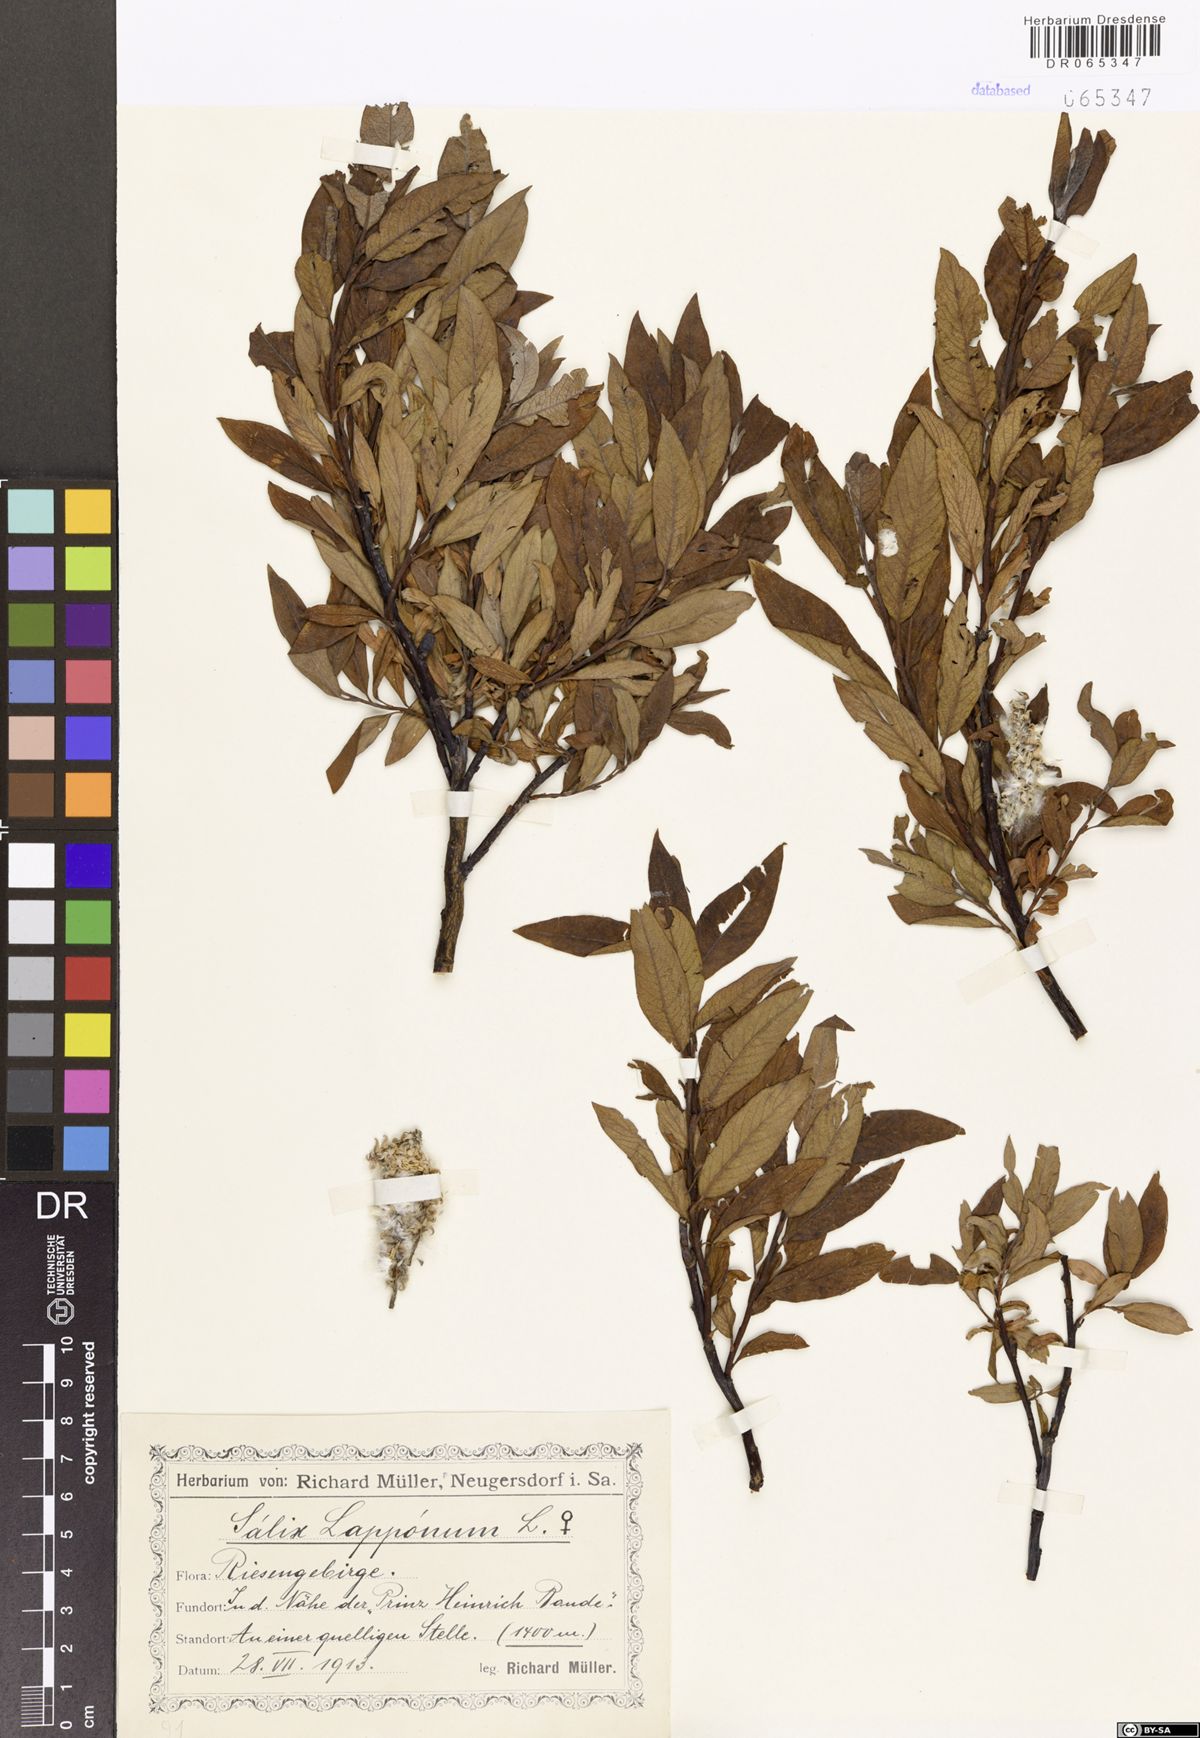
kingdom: Plantae
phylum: Tracheophyta
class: Magnoliopsida
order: Malpighiales
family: Salicaceae
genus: Salix
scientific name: Salix lapponum
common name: Downy willow
